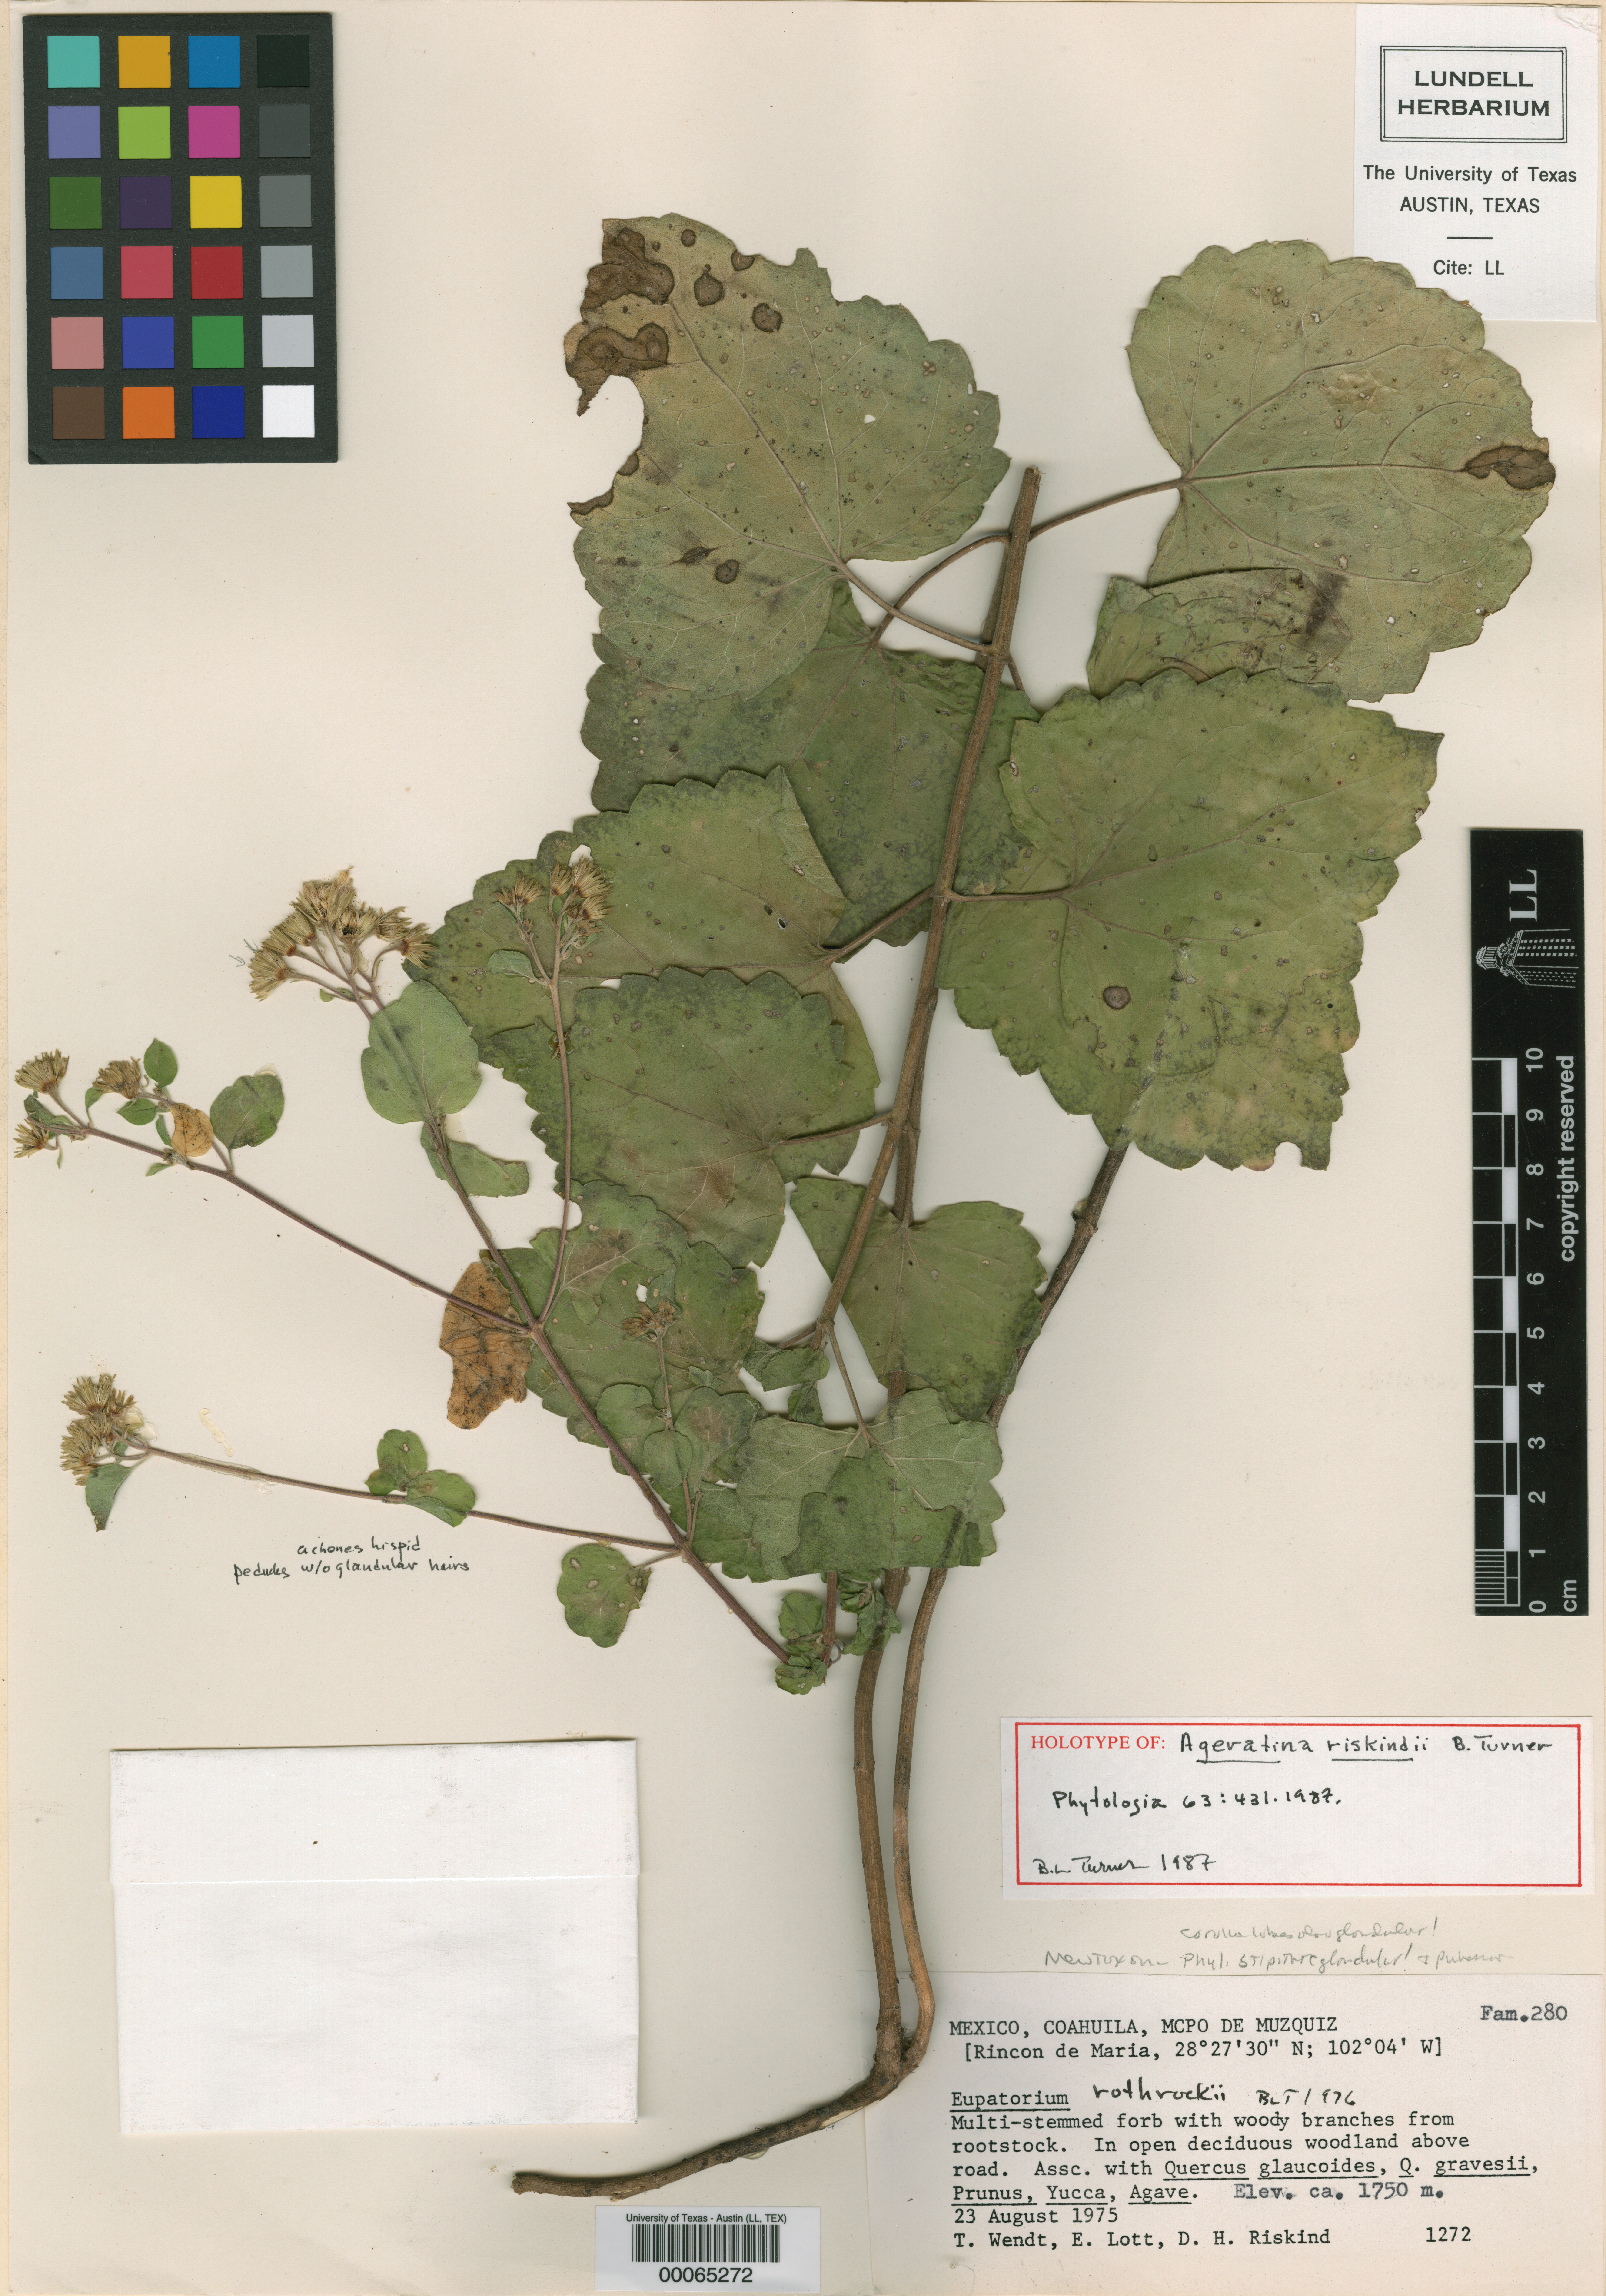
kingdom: Plantae
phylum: Tracheophyta
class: Magnoliopsida
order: Asterales
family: Asteraceae
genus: Ageratina
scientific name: Ageratina riskindii
